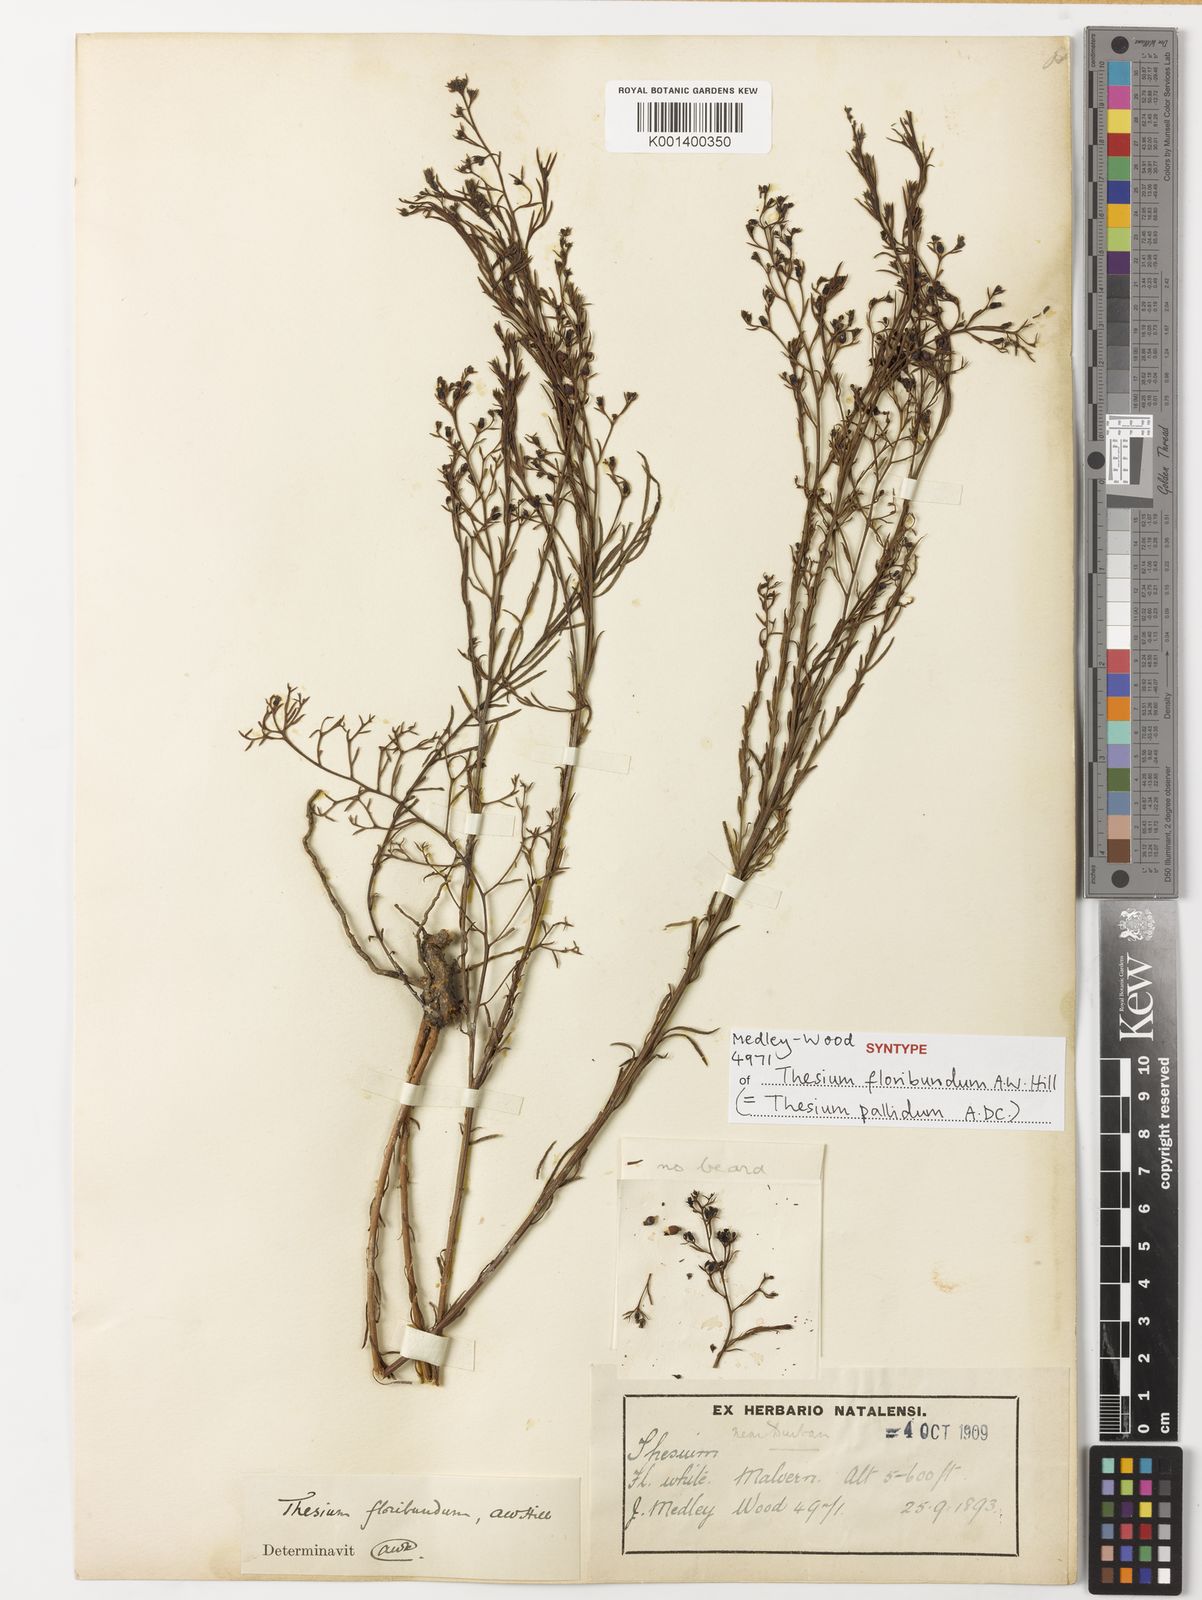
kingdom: Plantae
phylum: Tracheophyta
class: Magnoliopsida
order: Santalales
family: Thesiaceae
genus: Thesium
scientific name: Thesium pallidum
